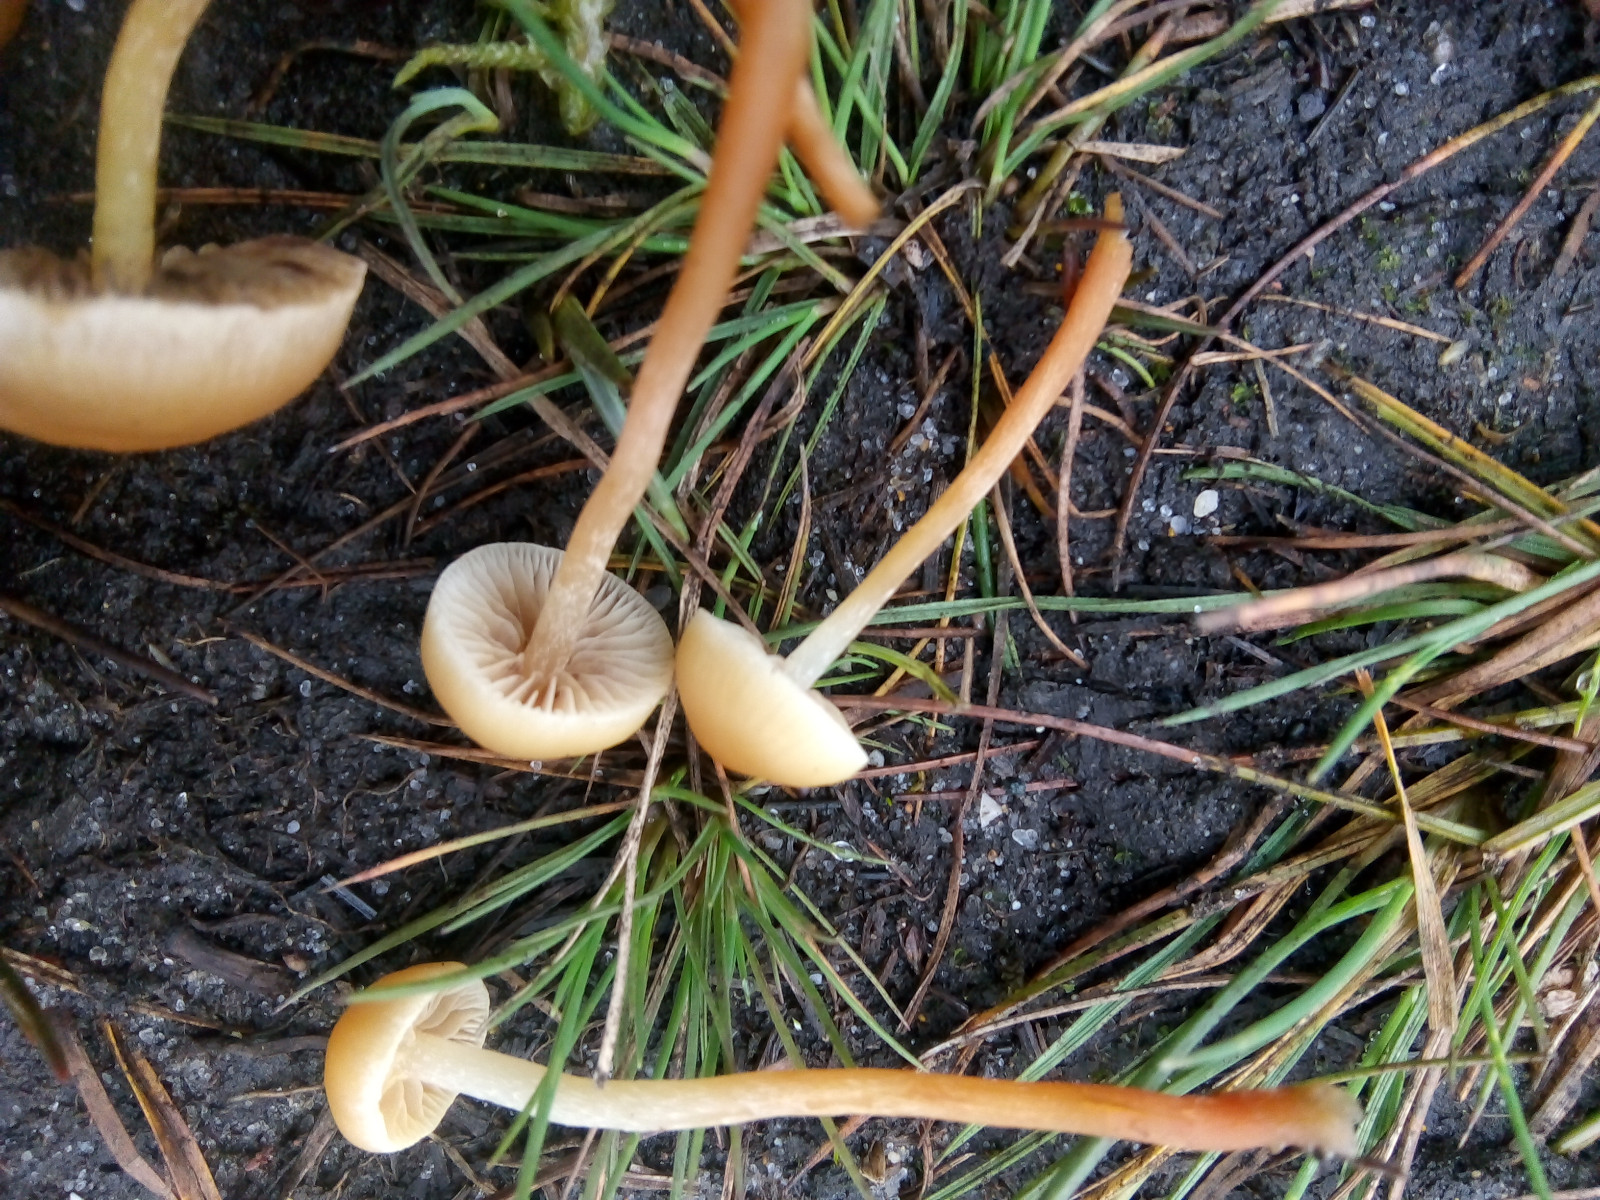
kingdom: Fungi
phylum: Basidiomycota
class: Agaricomycetes
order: Agaricales
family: Strophariaceae
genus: Hypholoma
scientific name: Hypholoma elongatum
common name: slank svovlhat
